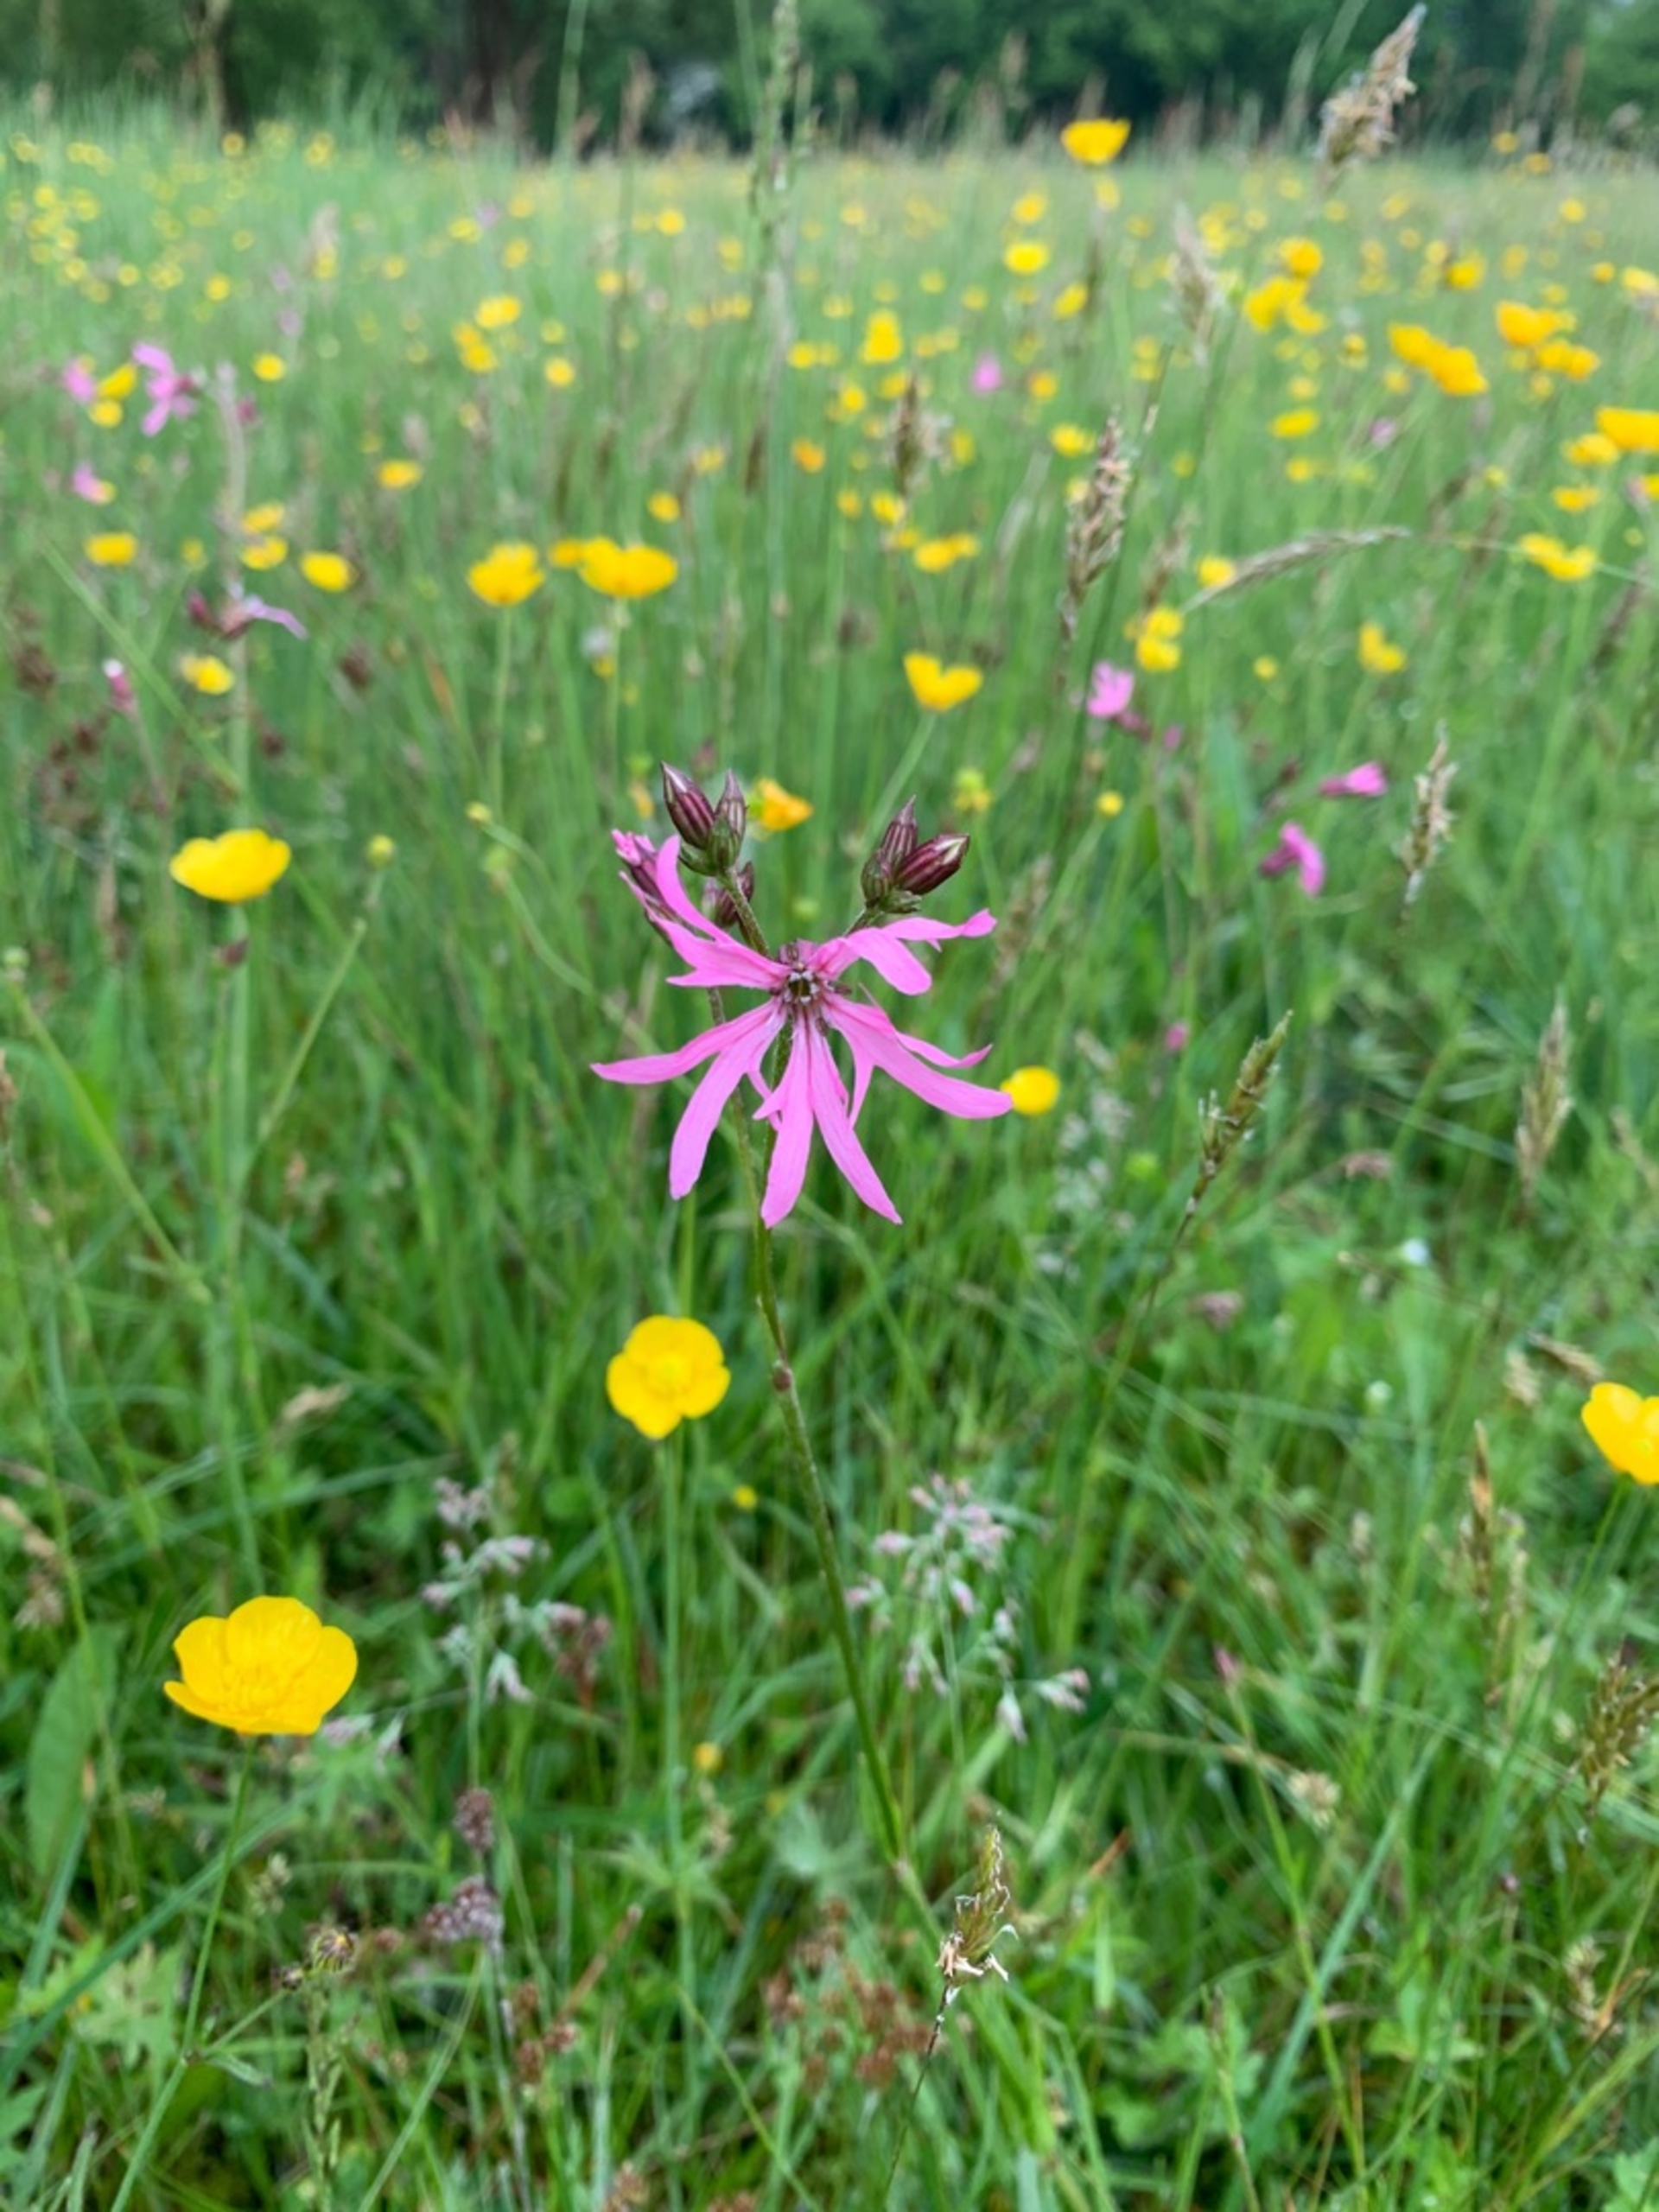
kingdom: Plantae
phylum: Tracheophyta
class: Magnoliopsida
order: Caryophyllales
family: Caryophyllaceae
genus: Silene
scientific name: Silene flos-cuculi
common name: Trævlekrone
